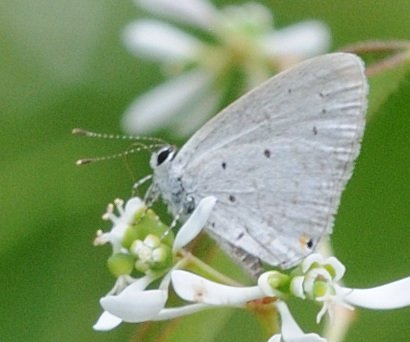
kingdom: Animalia
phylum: Arthropoda
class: Insecta
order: Lepidoptera
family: Lycaenidae
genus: Eicochrysops
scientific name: Eicochrysops hippocrates
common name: White-tipped Blue
